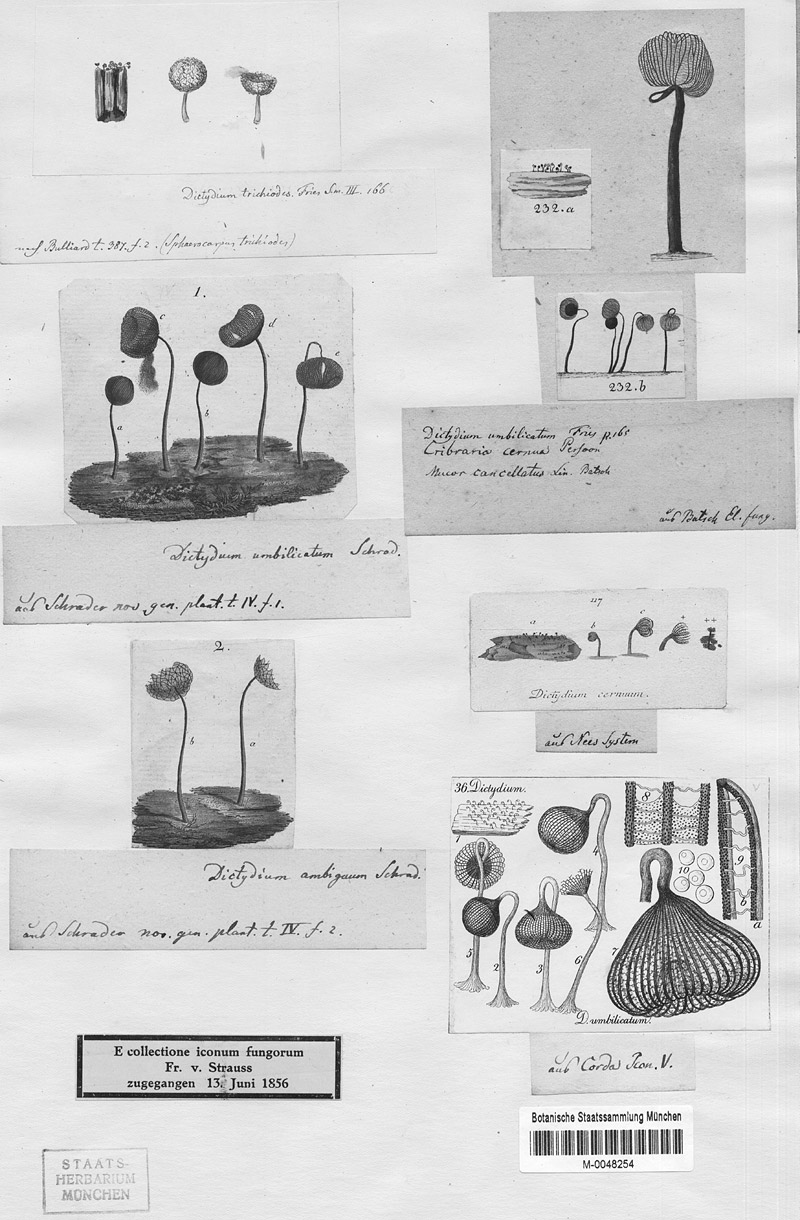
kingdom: Protozoa
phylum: Mycetozoa
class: Myxomycetes
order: Cribrariales
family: Cribrariaceae
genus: Cribraria
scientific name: Cribraria cancellata
